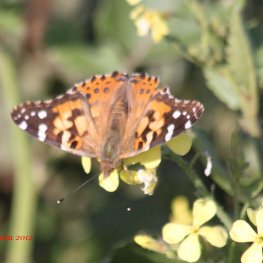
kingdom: Animalia
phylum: Arthropoda
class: Insecta
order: Lepidoptera
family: Nymphalidae
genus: Vanessa
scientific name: Vanessa cardui
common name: Painted Lady
